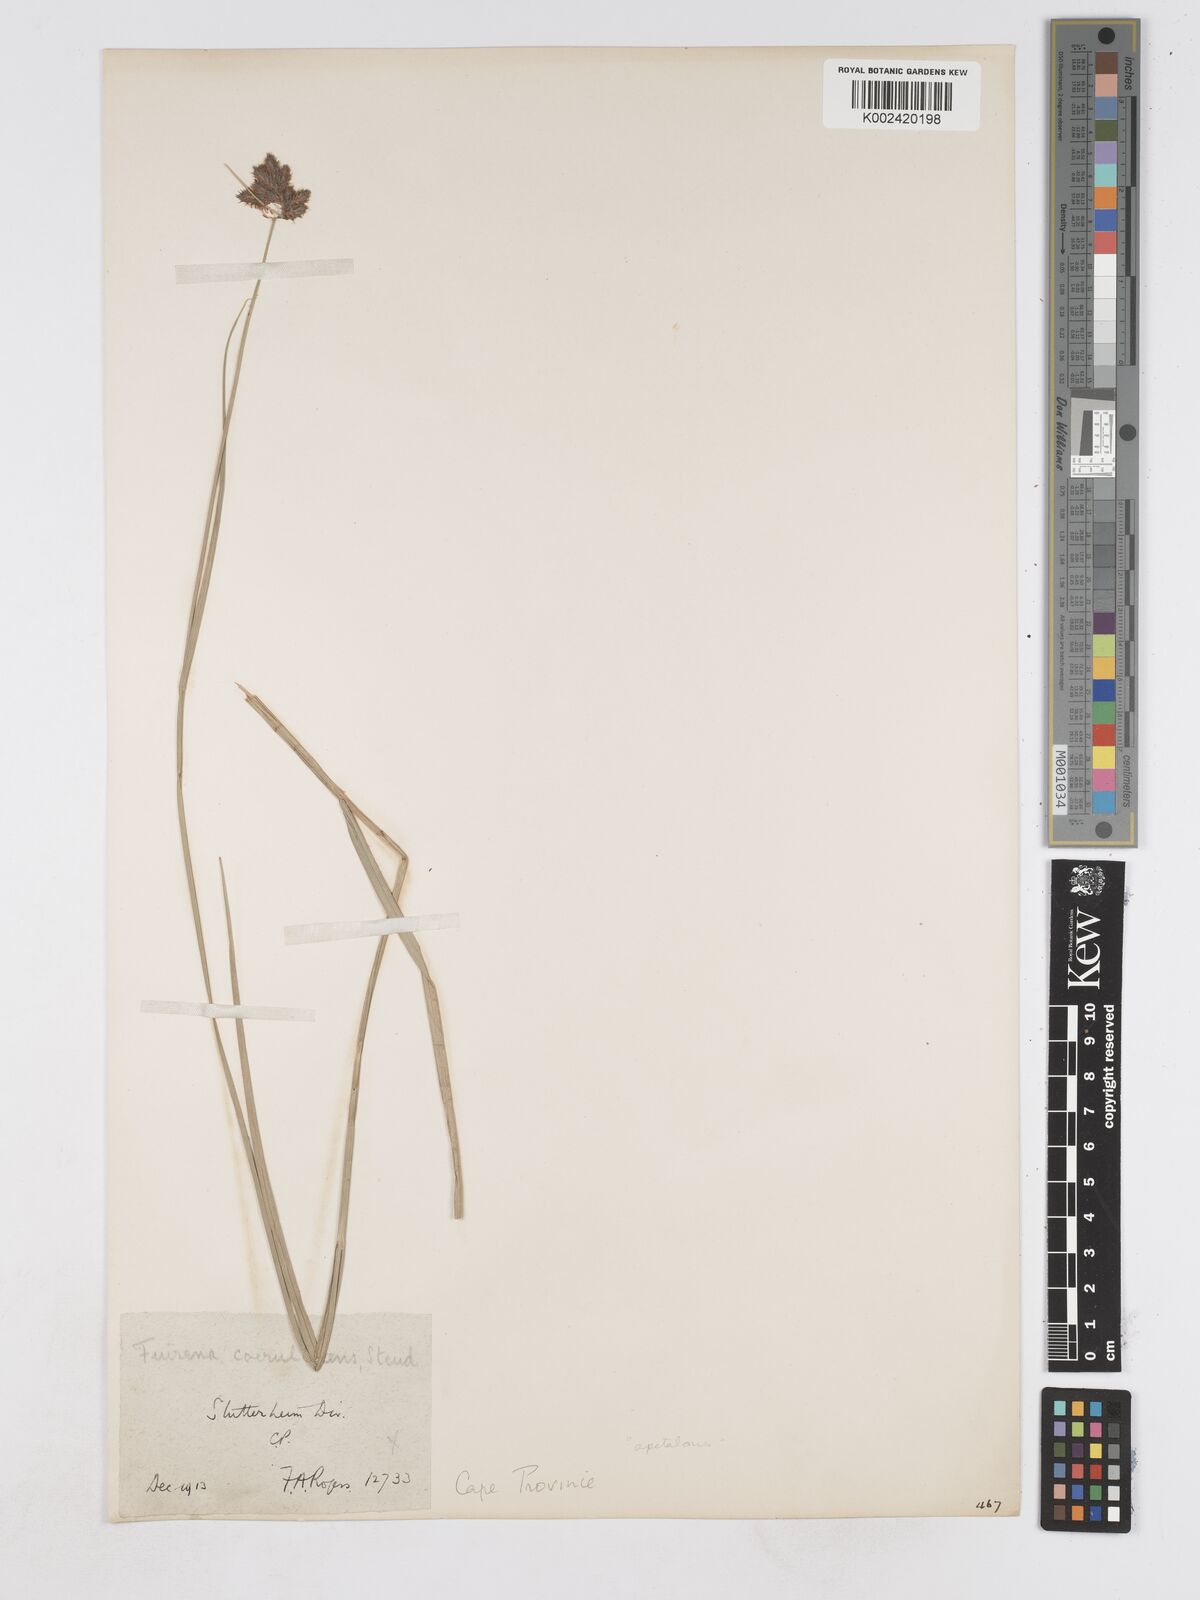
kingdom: Plantae
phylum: Tracheophyta
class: Liliopsida
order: Poales
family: Cyperaceae
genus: Fuirena
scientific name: Fuirena coerulescens
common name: Blue umbrella-sedge
